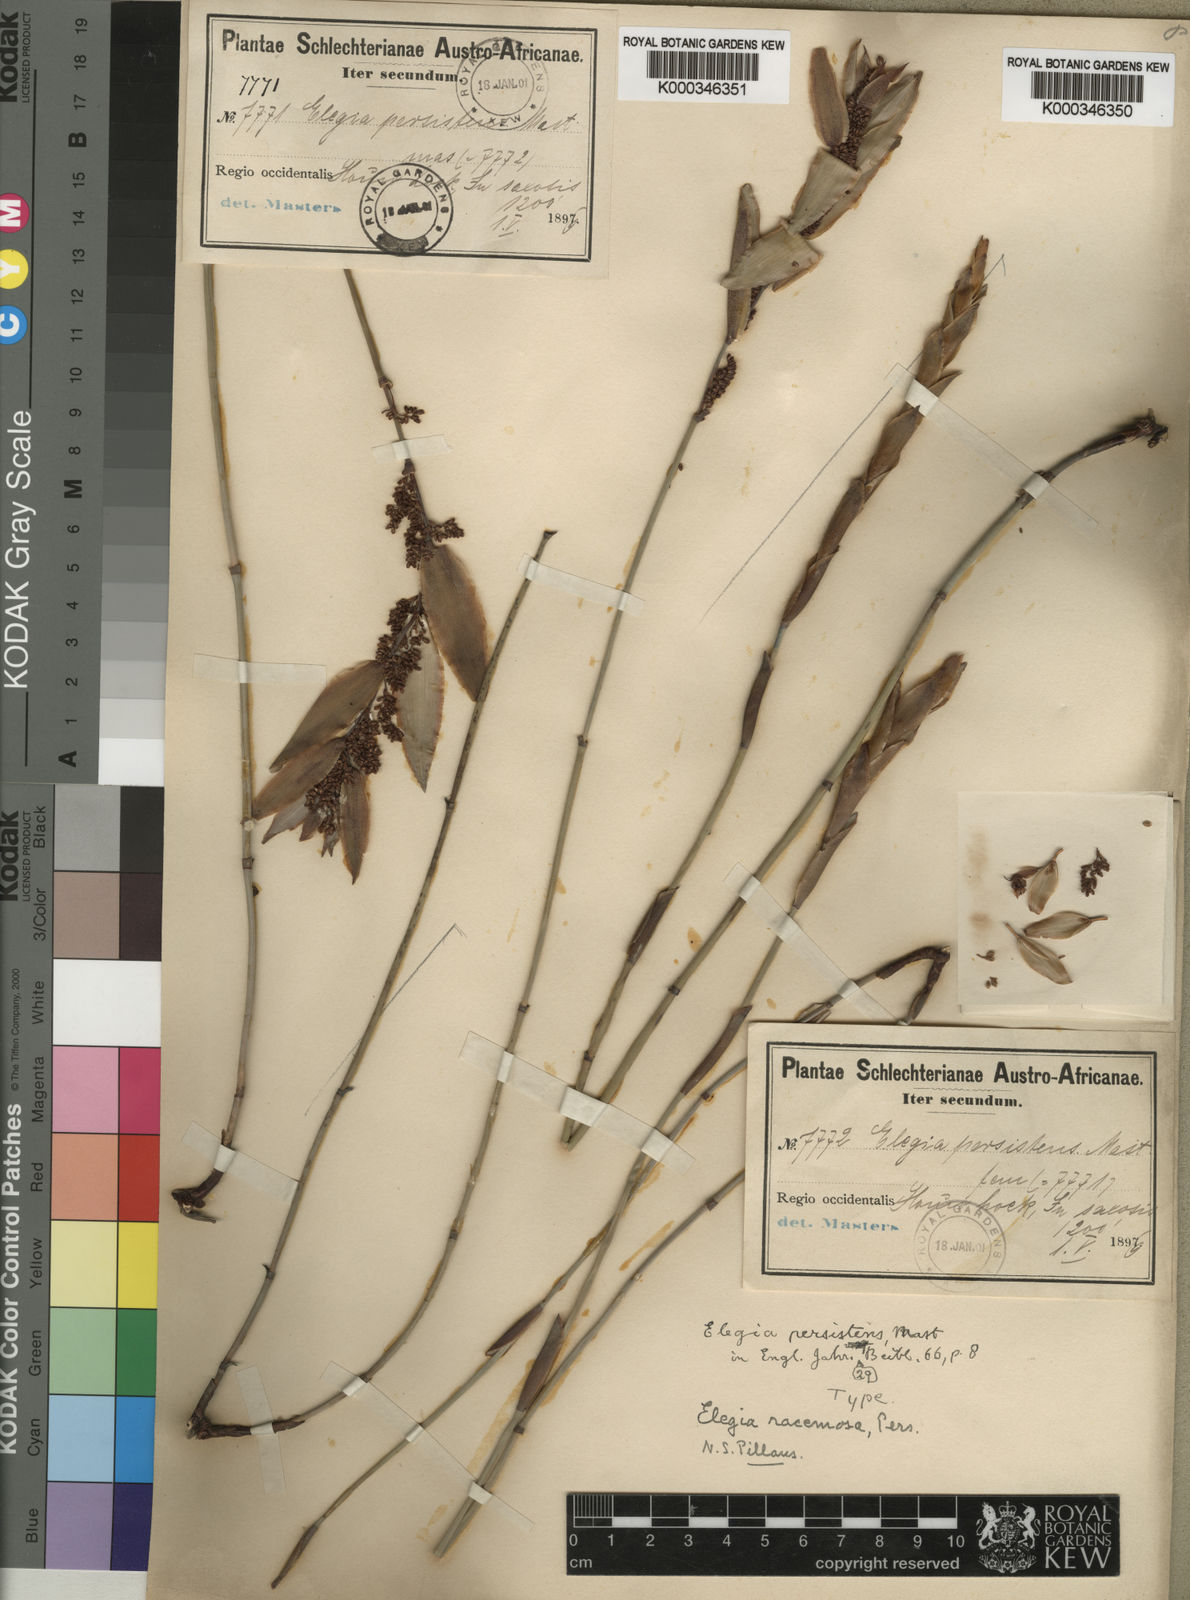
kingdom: Plantae
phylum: Tracheophyta
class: Liliopsida
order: Poales
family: Restionaceae
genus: Elegia
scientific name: Elegia persistens
